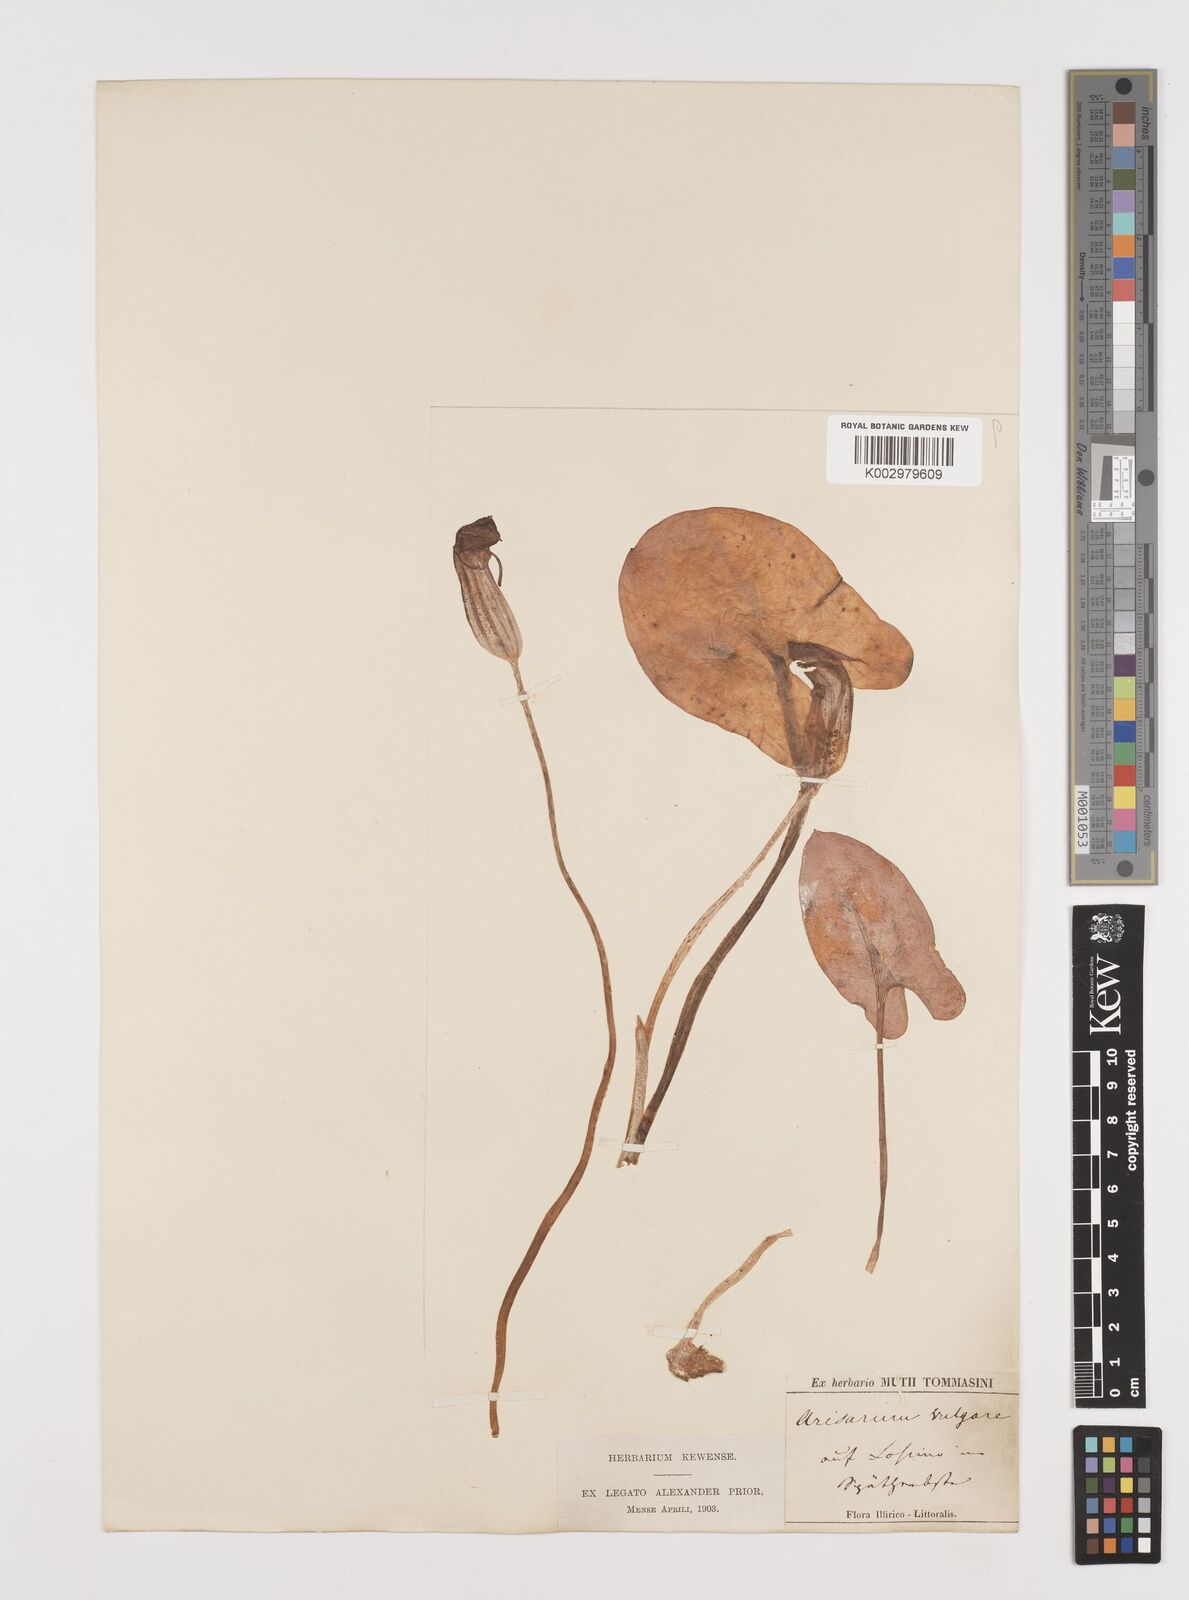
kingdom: Plantae
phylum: Tracheophyta
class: Liliopsida
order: Alismatales
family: Araceae
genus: Arisarum
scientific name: Arisarum vulgare
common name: Common arisarum
